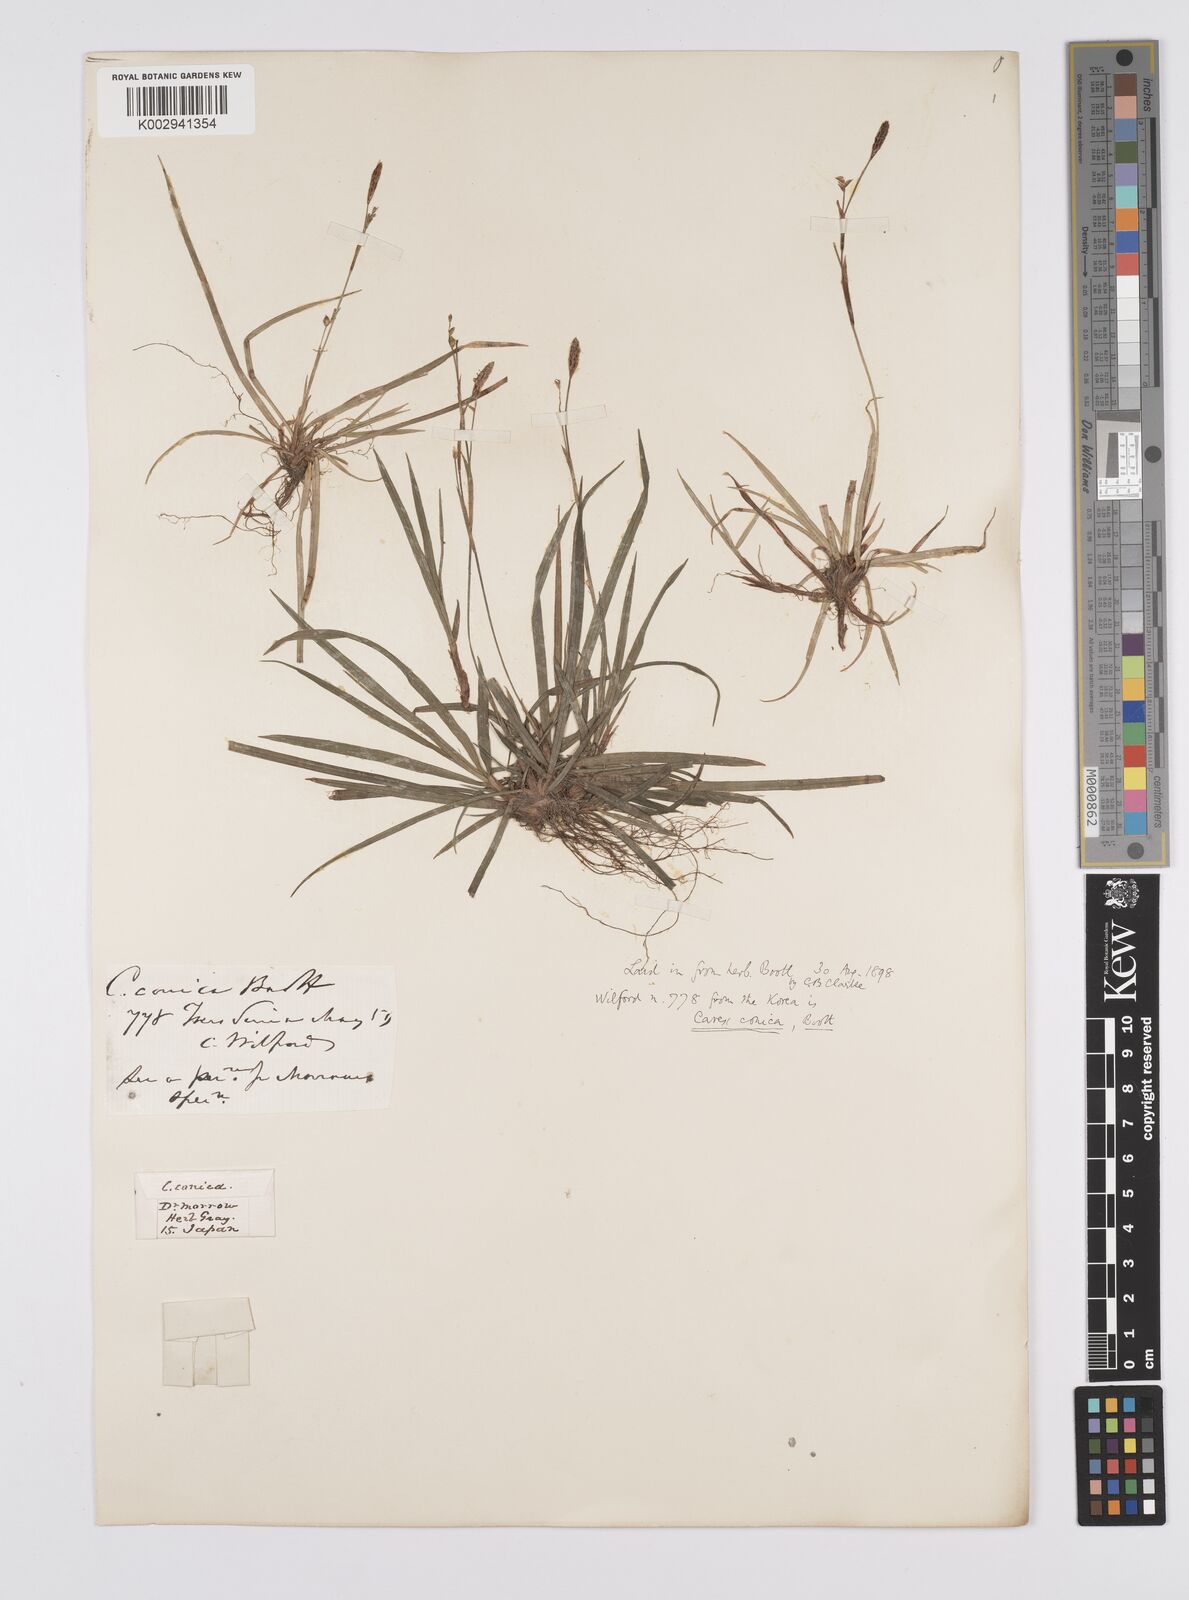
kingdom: Plantae
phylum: Tracheophyta
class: Liliopsida
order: Poales
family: Cyperaceae
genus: Carex
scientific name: Carex conica
